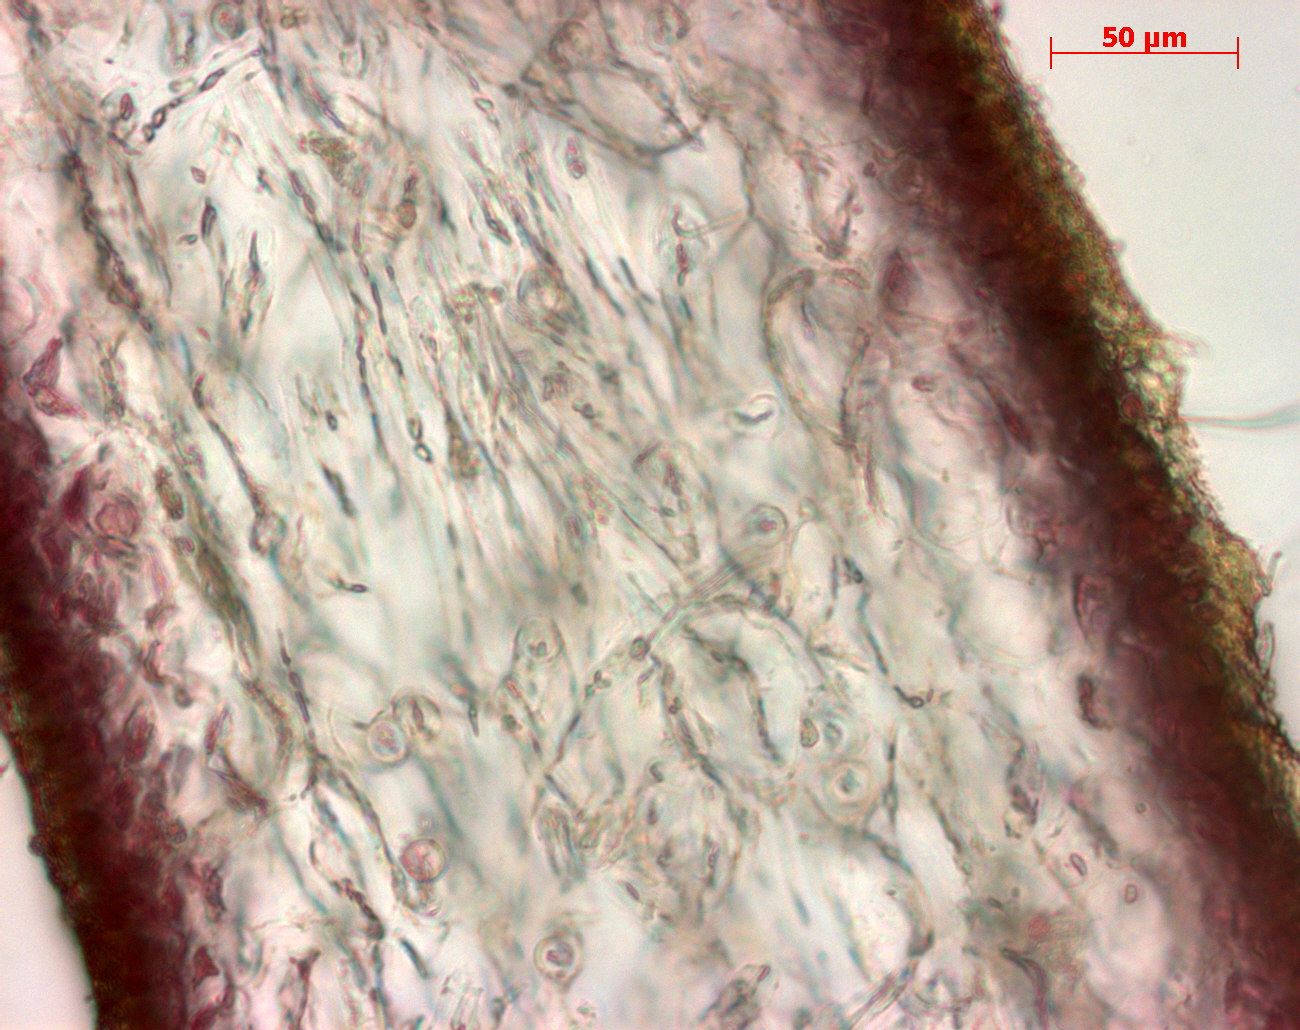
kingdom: Plantae
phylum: Rhodophyta
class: Florideophyceae
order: Gigartinales
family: Kallymeniaceae
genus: Psaromenia
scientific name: Psaromenia berggrenii
